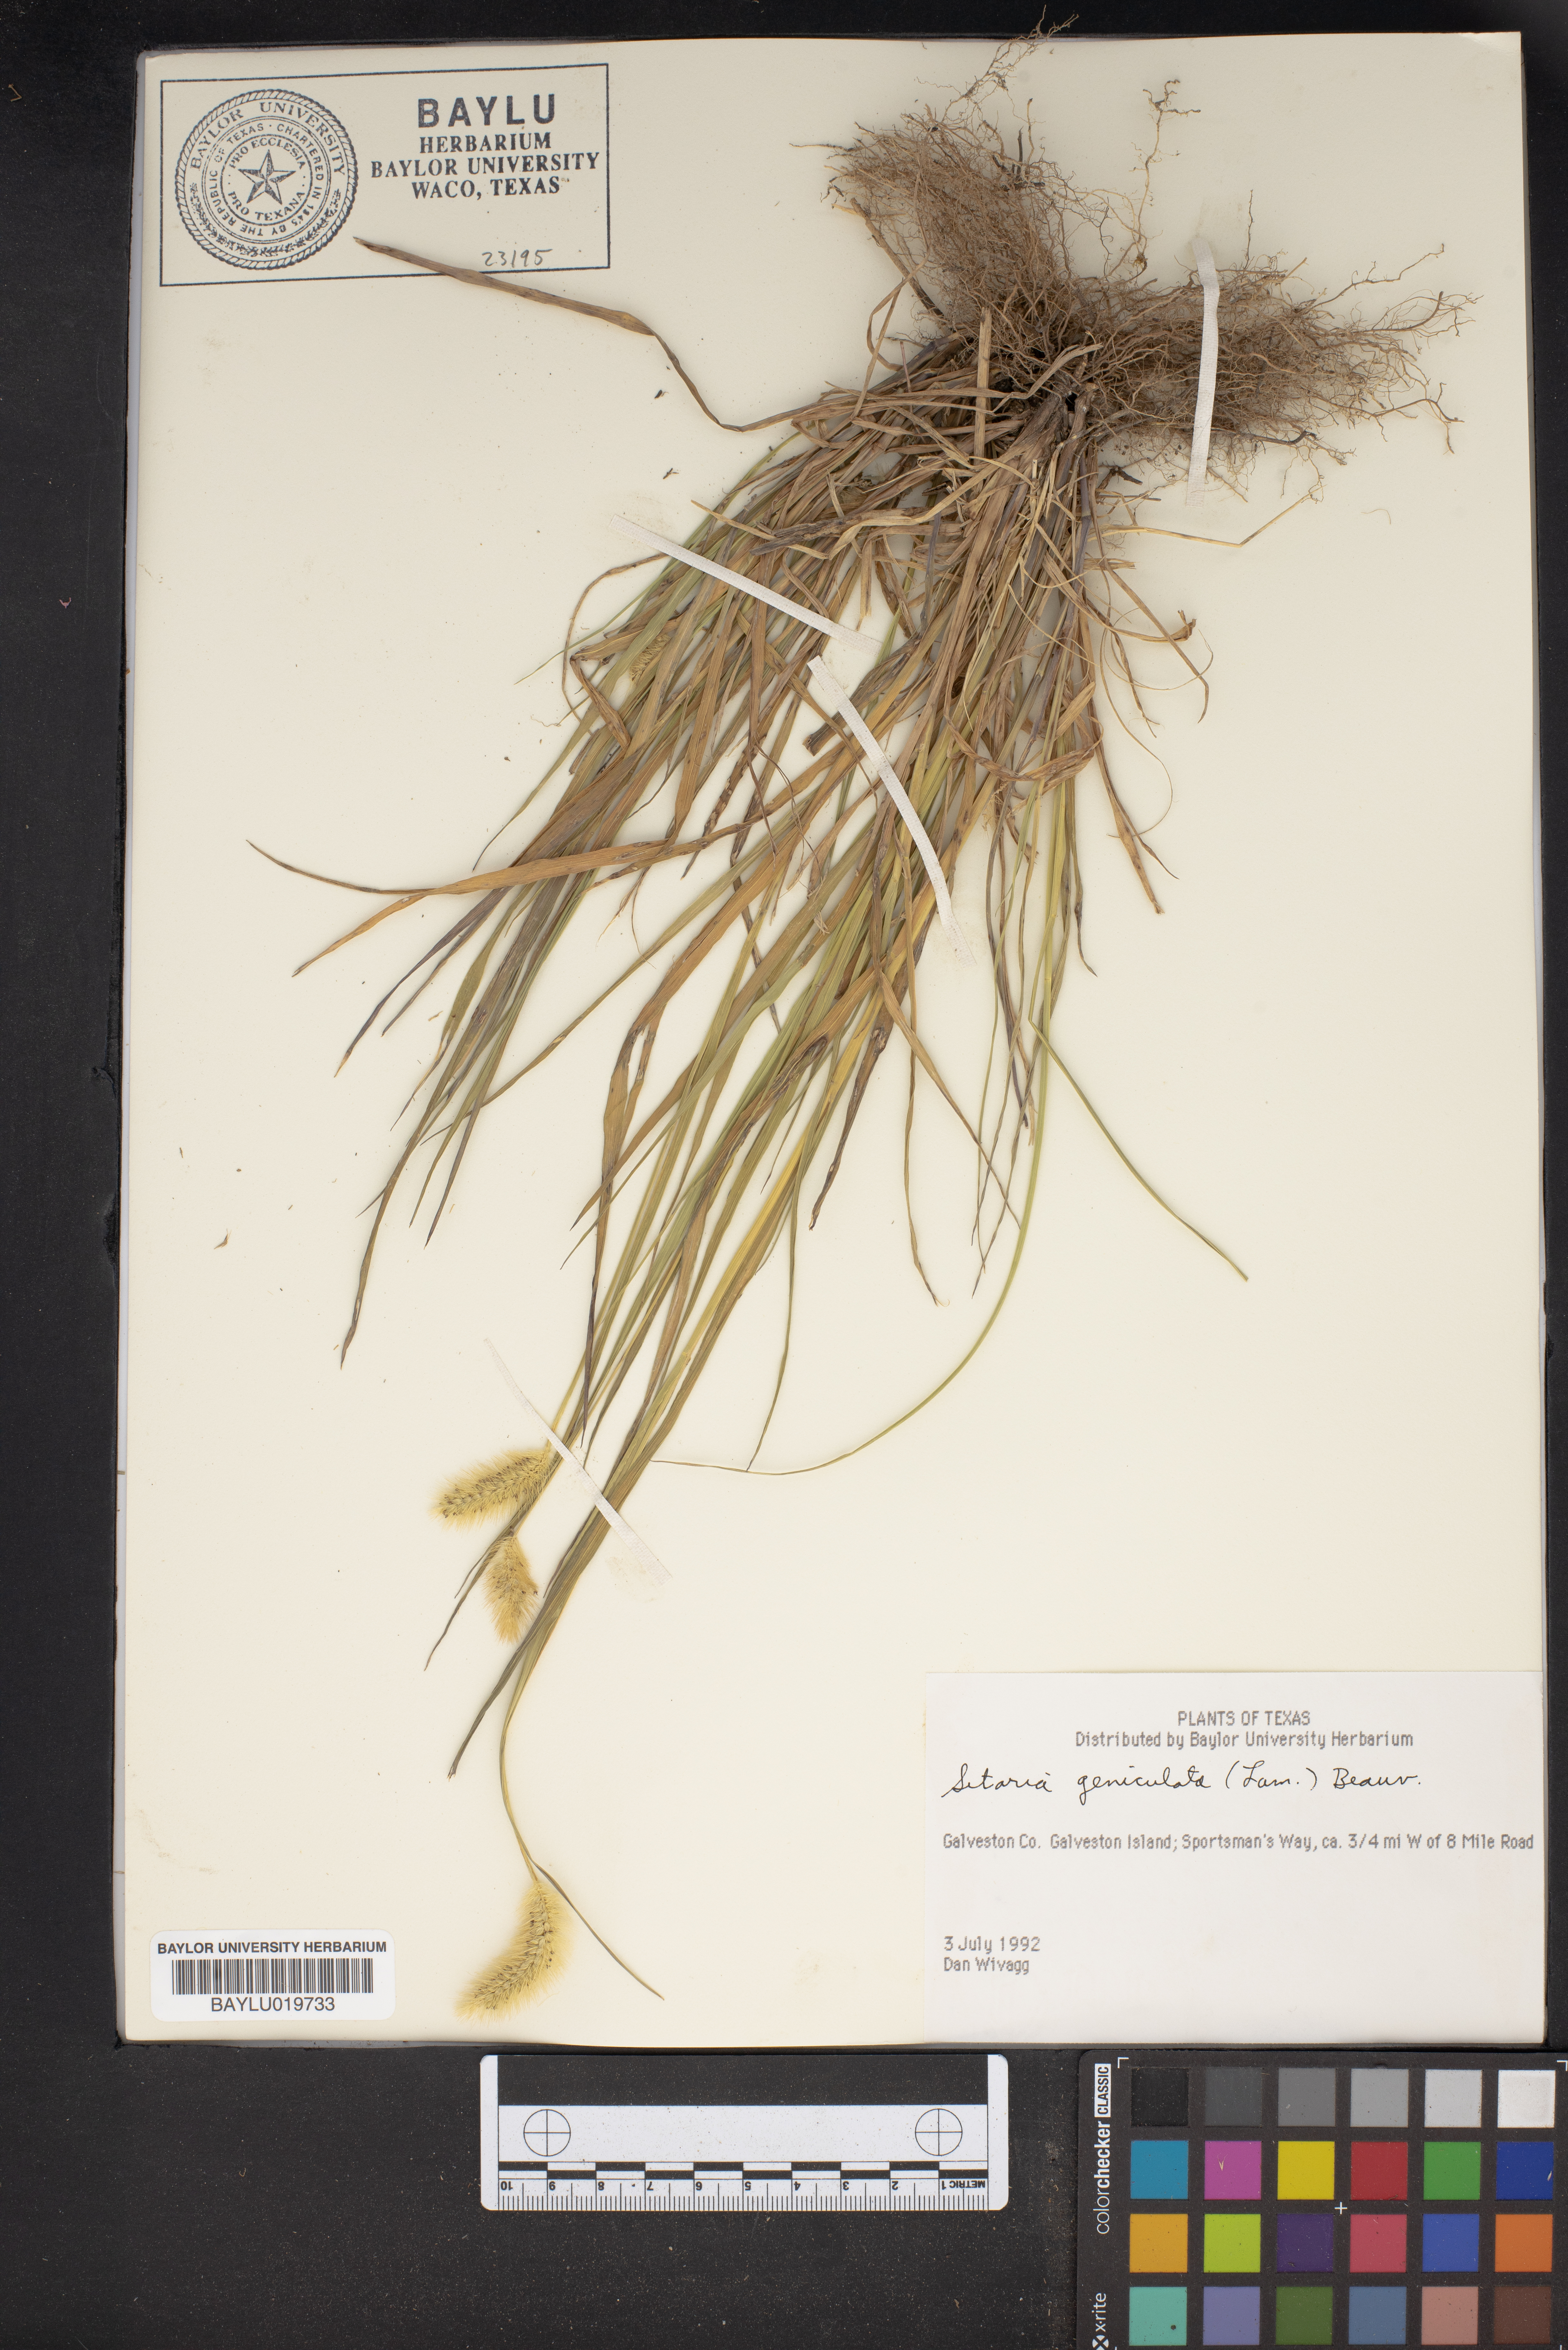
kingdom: Plantae
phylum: Tracheophyta
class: Liliopsida
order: Poales
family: Poaceae
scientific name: Poaceae
